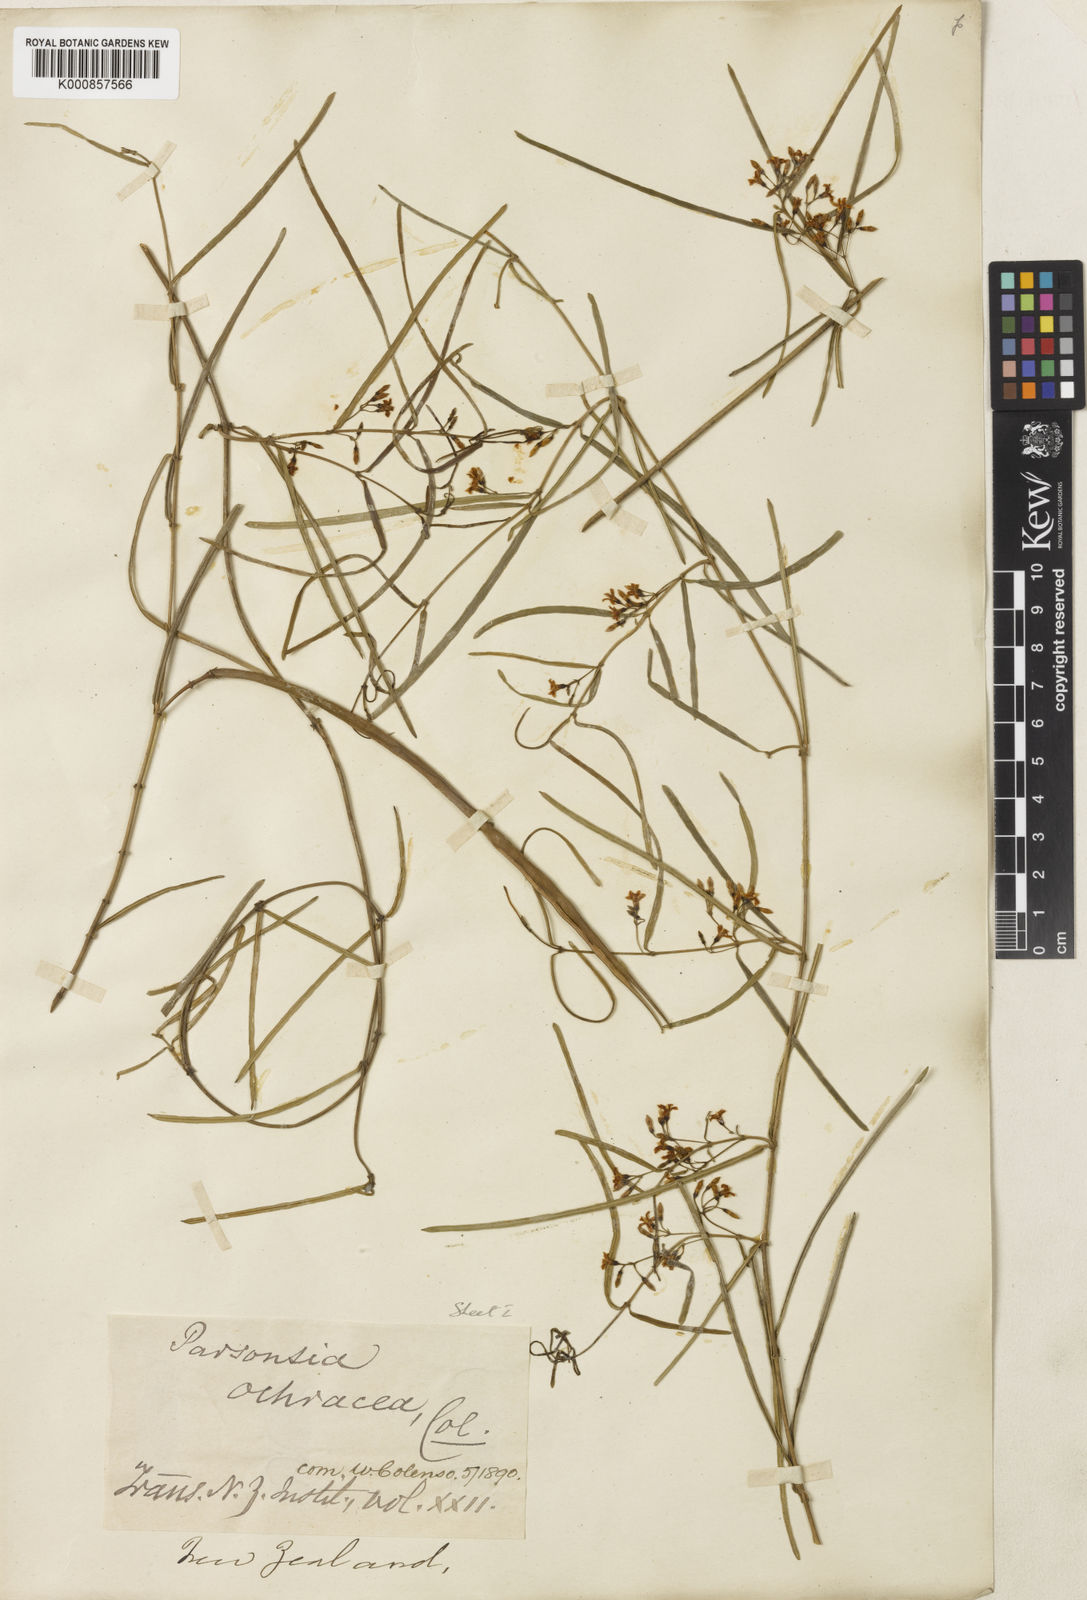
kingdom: Plantae
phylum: Tracheophyta
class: Magnoliopsida
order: Gentianales
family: Apocynaceae
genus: Parsonsia
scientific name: Parsonsia capsularis
